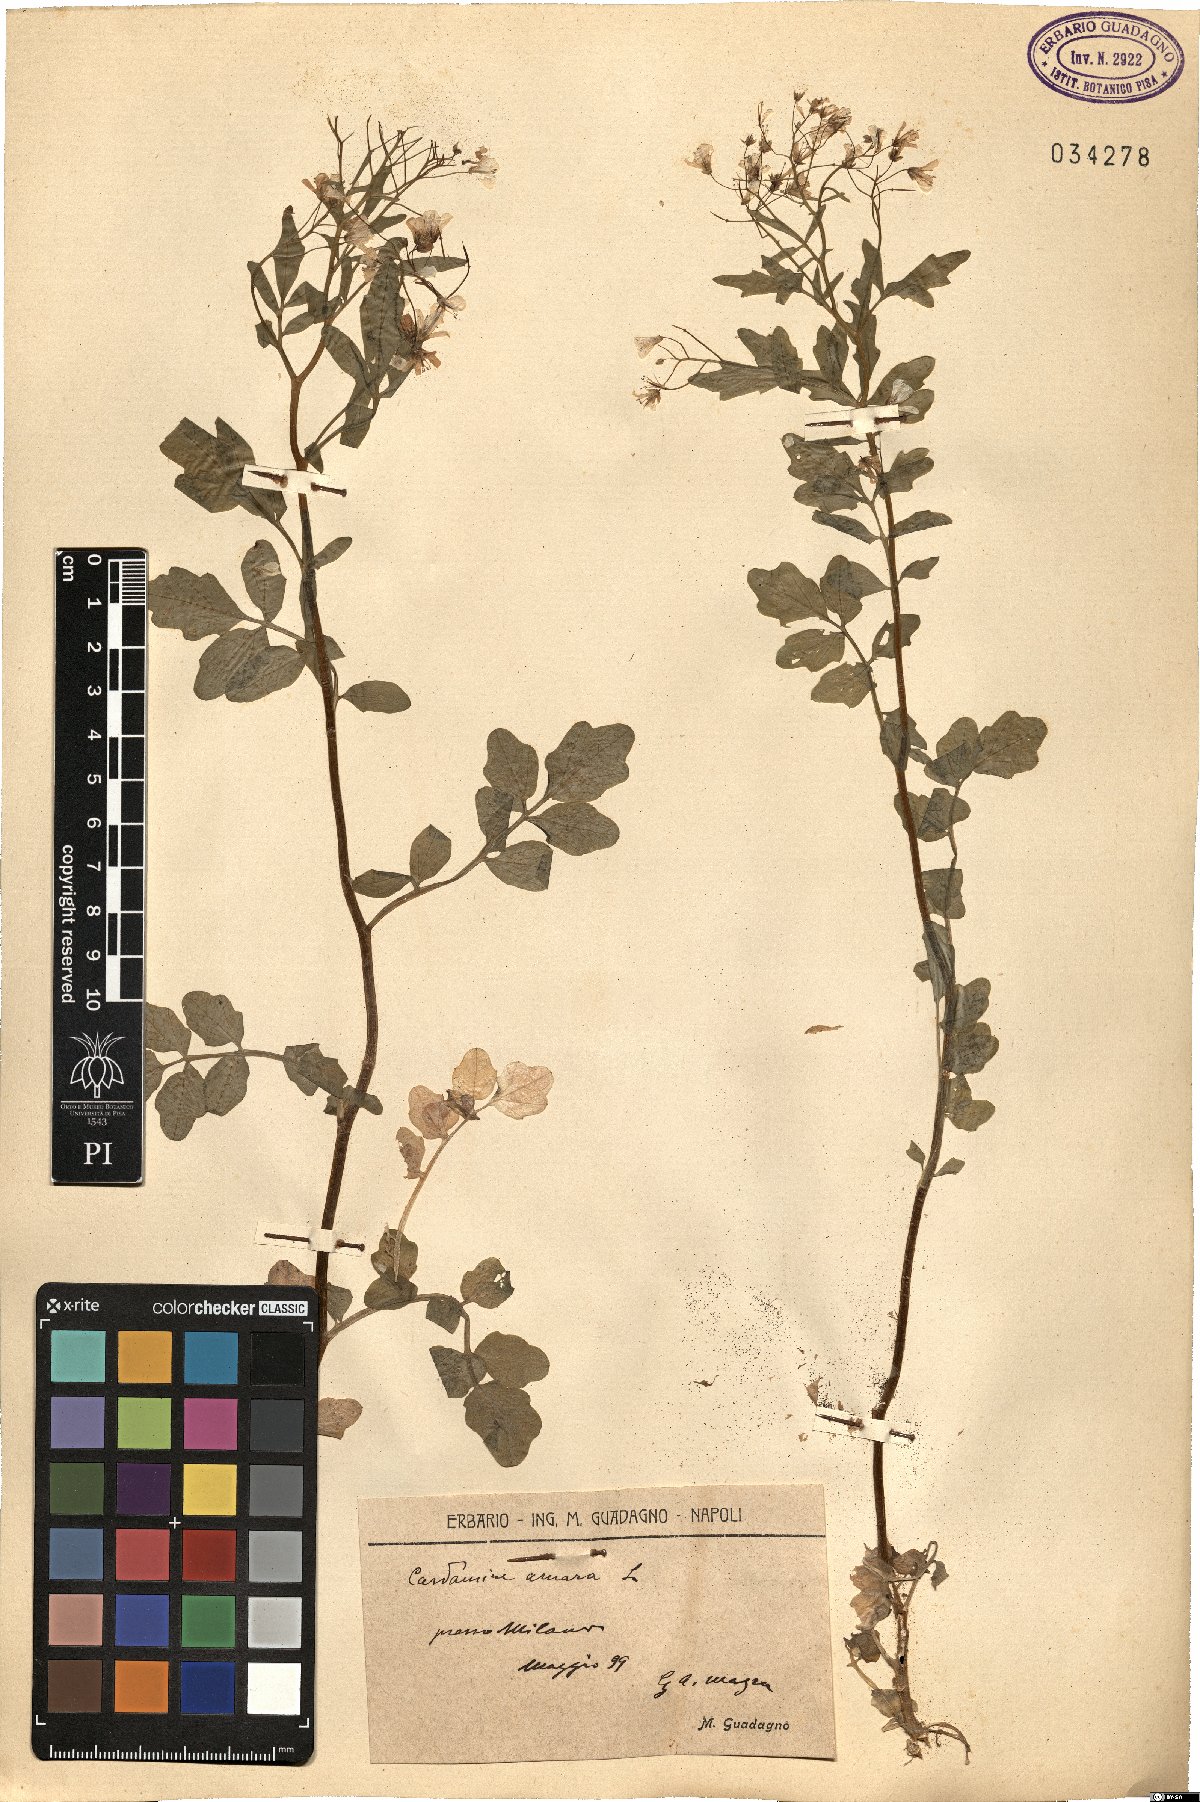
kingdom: Plantae
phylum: Tracheophyta
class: Magnoliopsida
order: Brassicales
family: Brassicaceae
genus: Cardamine
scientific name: Cardamine amara
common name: Large bitter-cress
